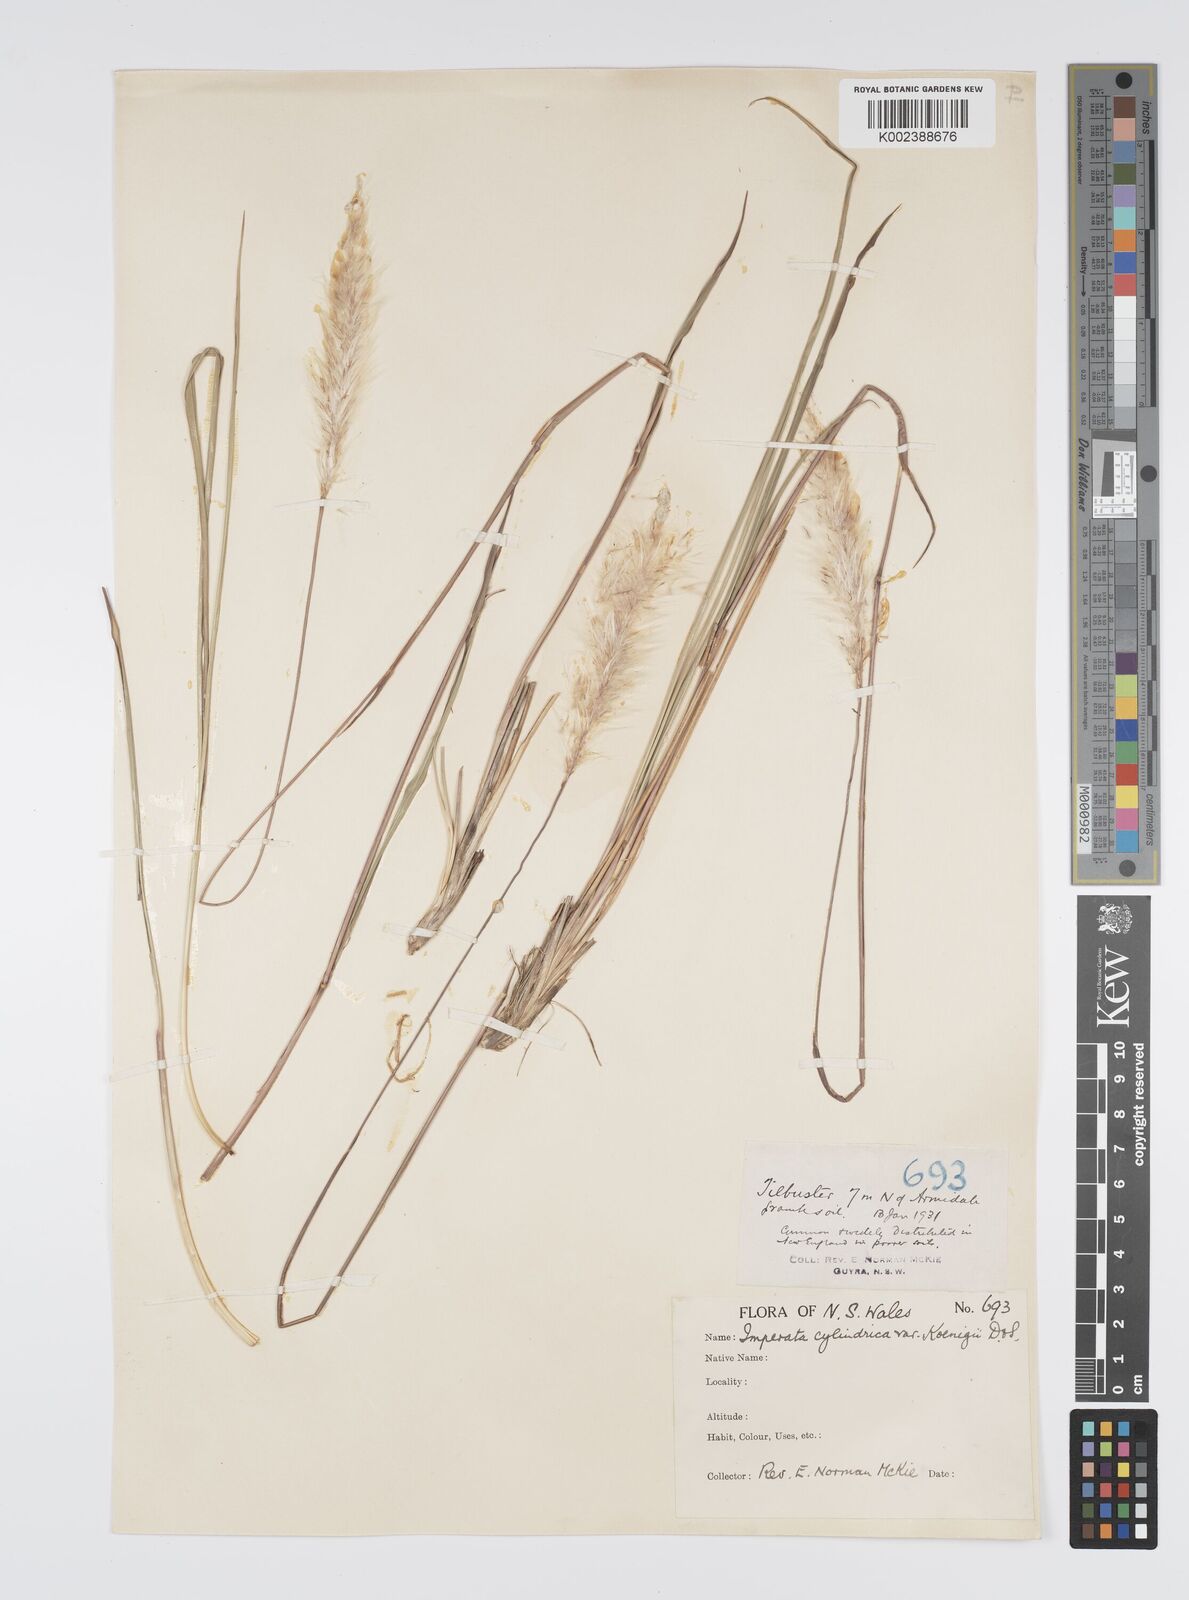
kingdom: Plantae
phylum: Tracheophyta
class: Liliopsida
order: Poales
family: Poaceae
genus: Imperata
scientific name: Imperata cylindrica
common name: Cogongrass
